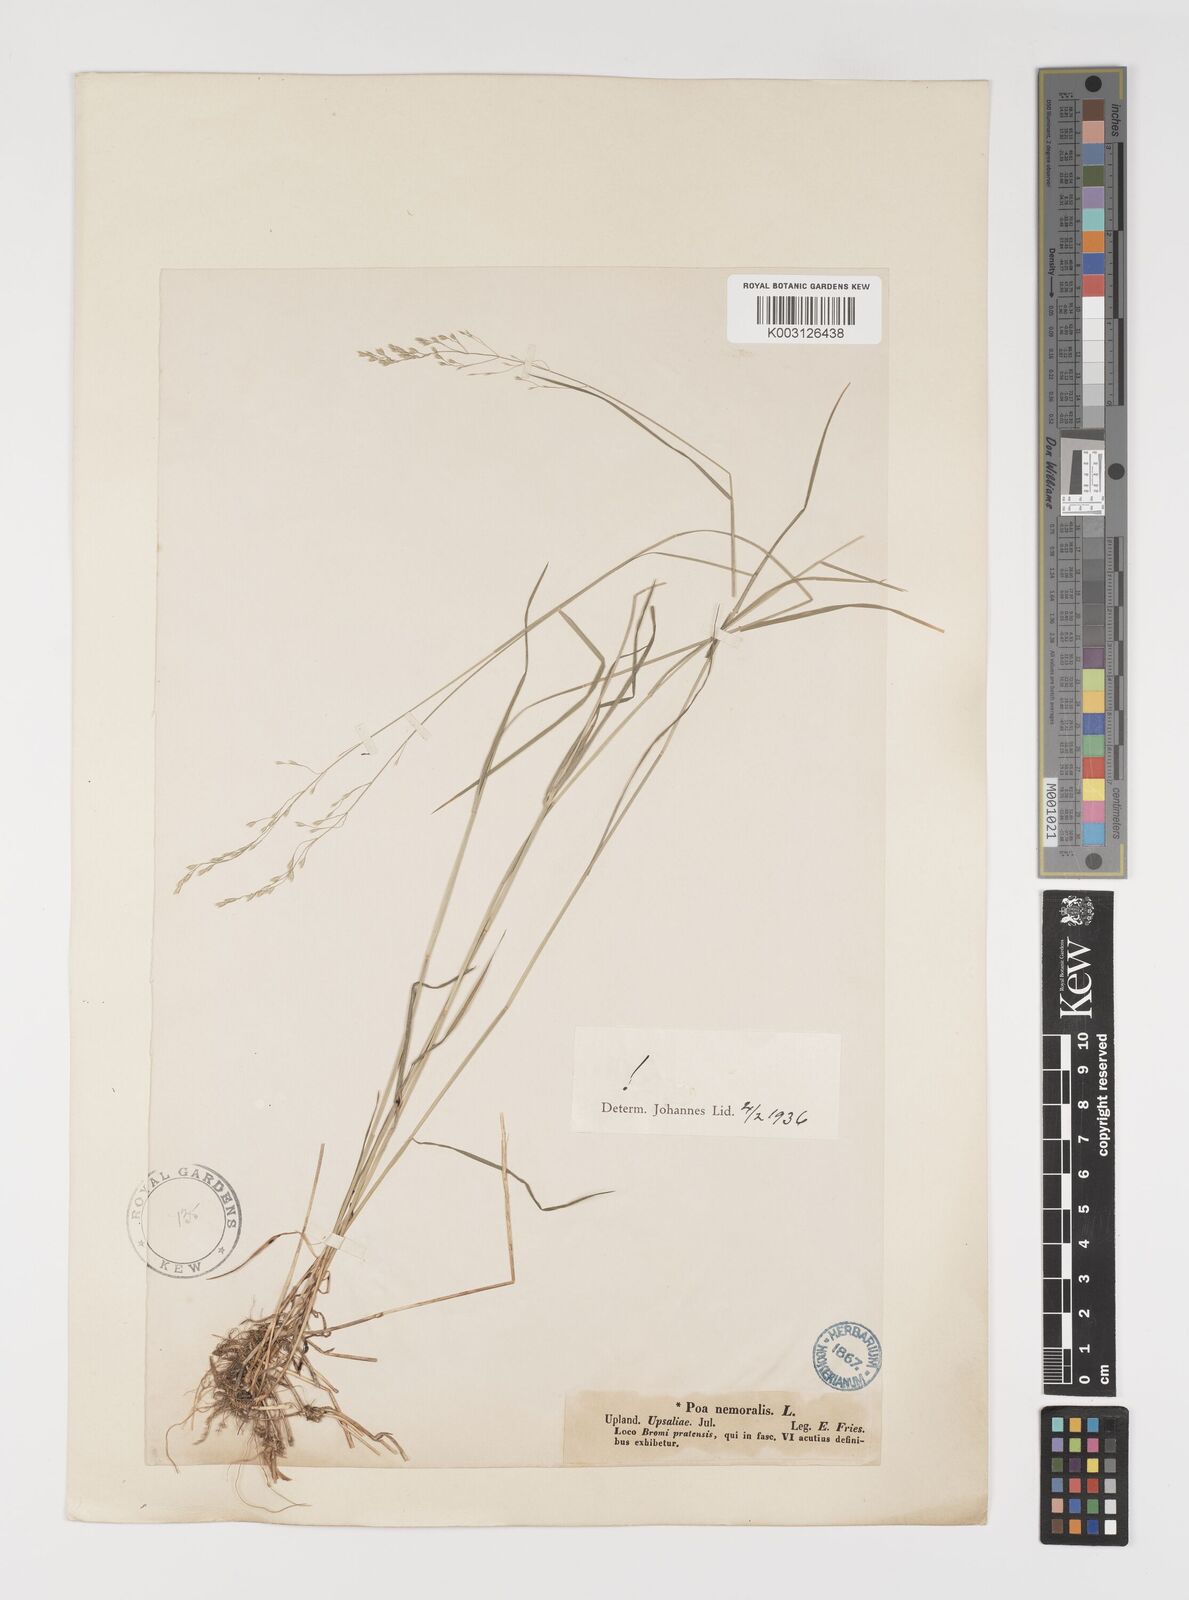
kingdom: Plantae
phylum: Tracheophyta
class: Liliopsida
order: Poales
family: Poaceae
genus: Poa
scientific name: Poa nemoralis
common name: Wood bluegrass
